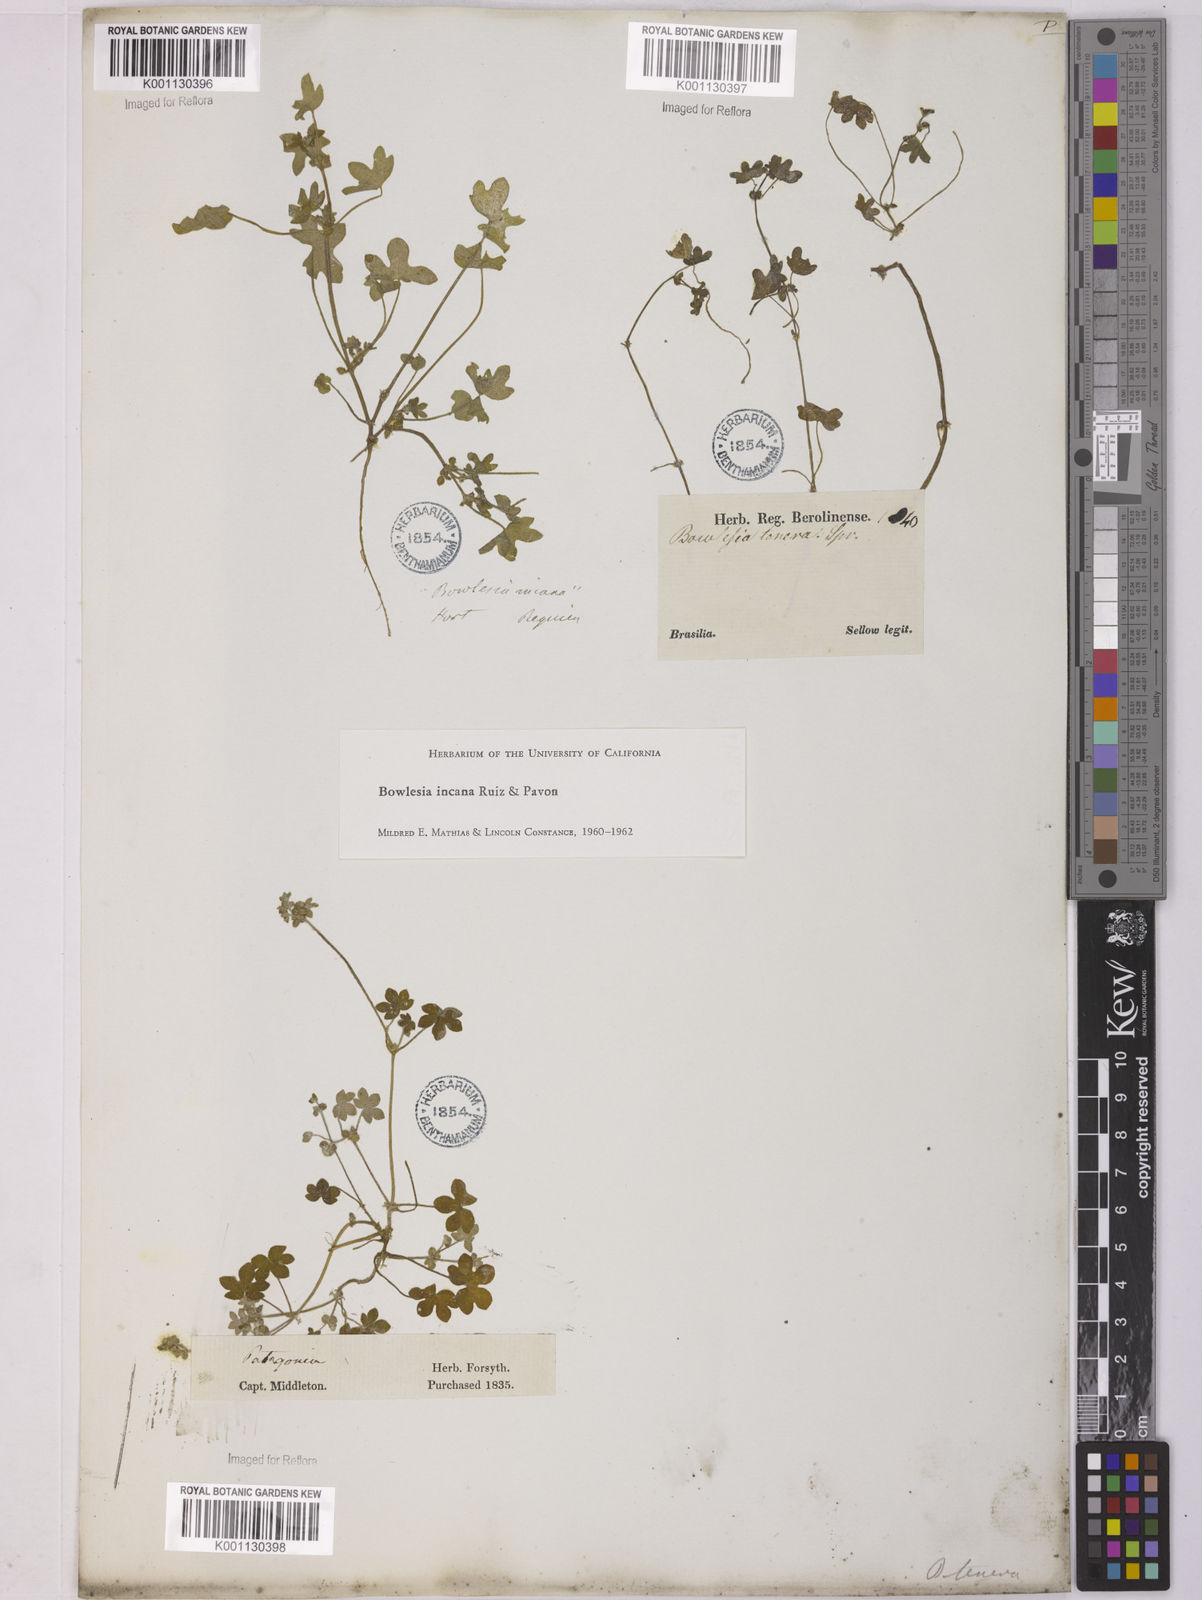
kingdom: Plantae
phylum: Tracheophyta
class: Magnoliopsida
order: Apiales
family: Apiaceae
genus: Bowlesia
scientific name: Bowlesia incana
